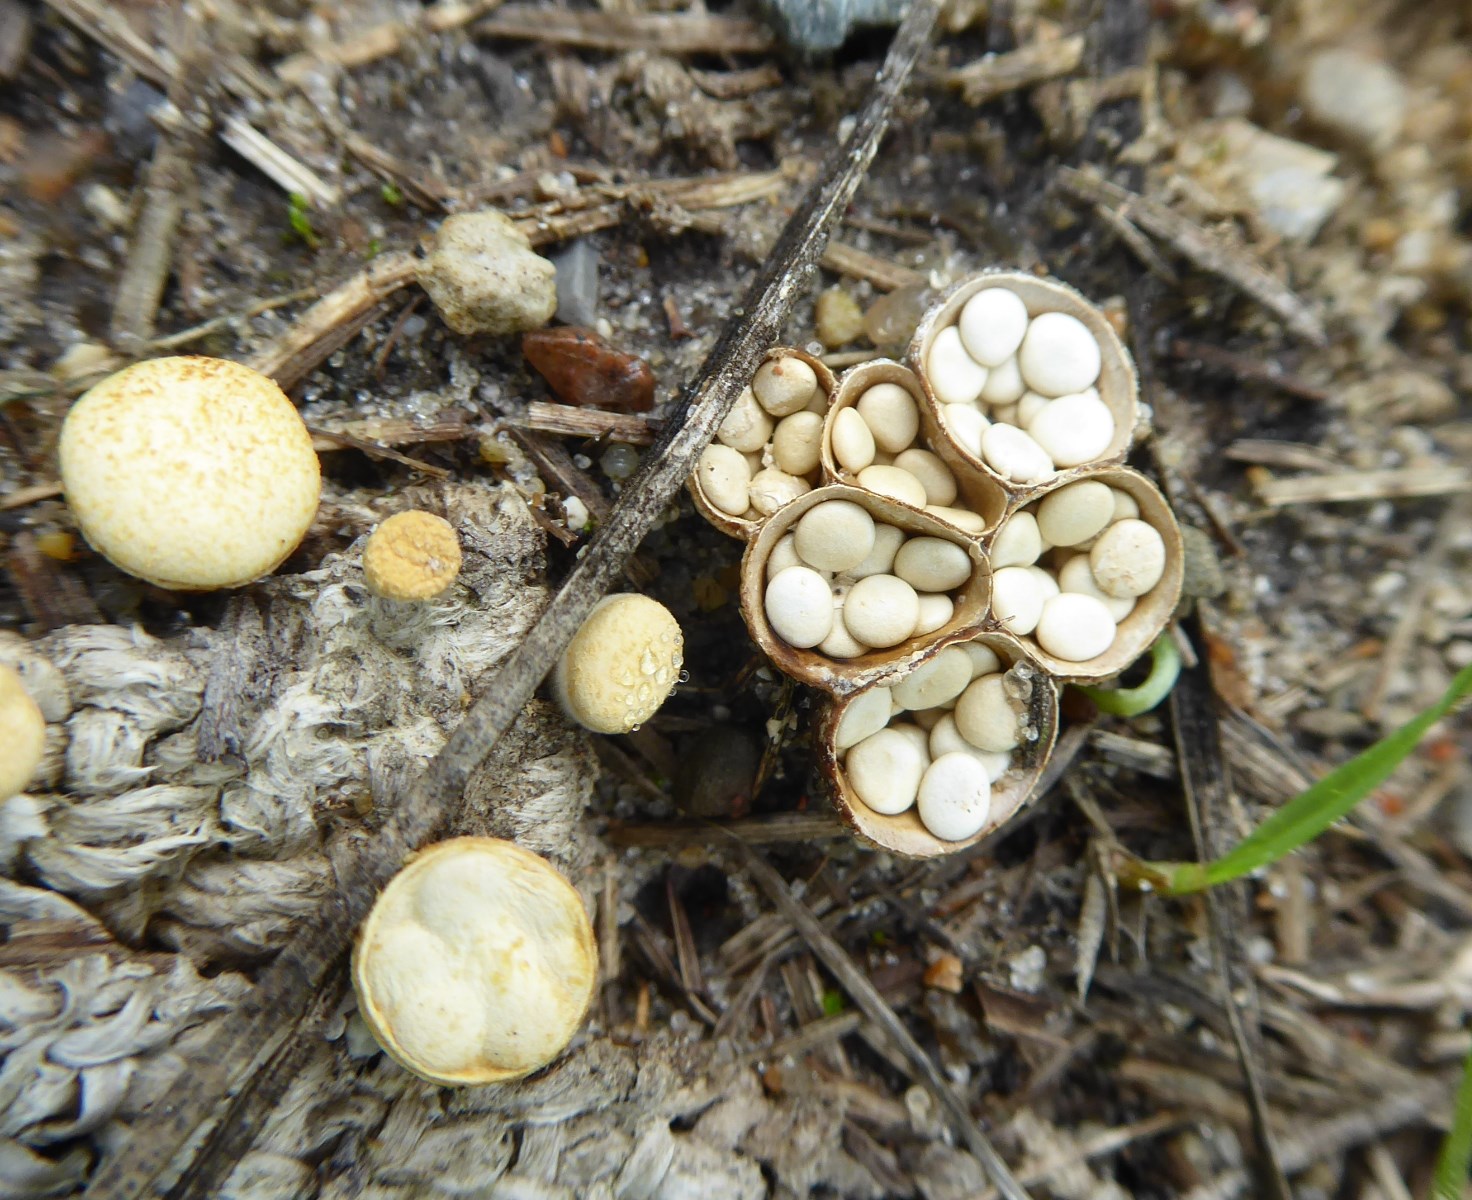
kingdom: Fungi
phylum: Basidiomycota
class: Agaricomycetes
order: Agaricales
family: Nidulariaceae
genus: Crucibulum
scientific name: Crucibulum crucibuliforme
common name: krukkesvamp
